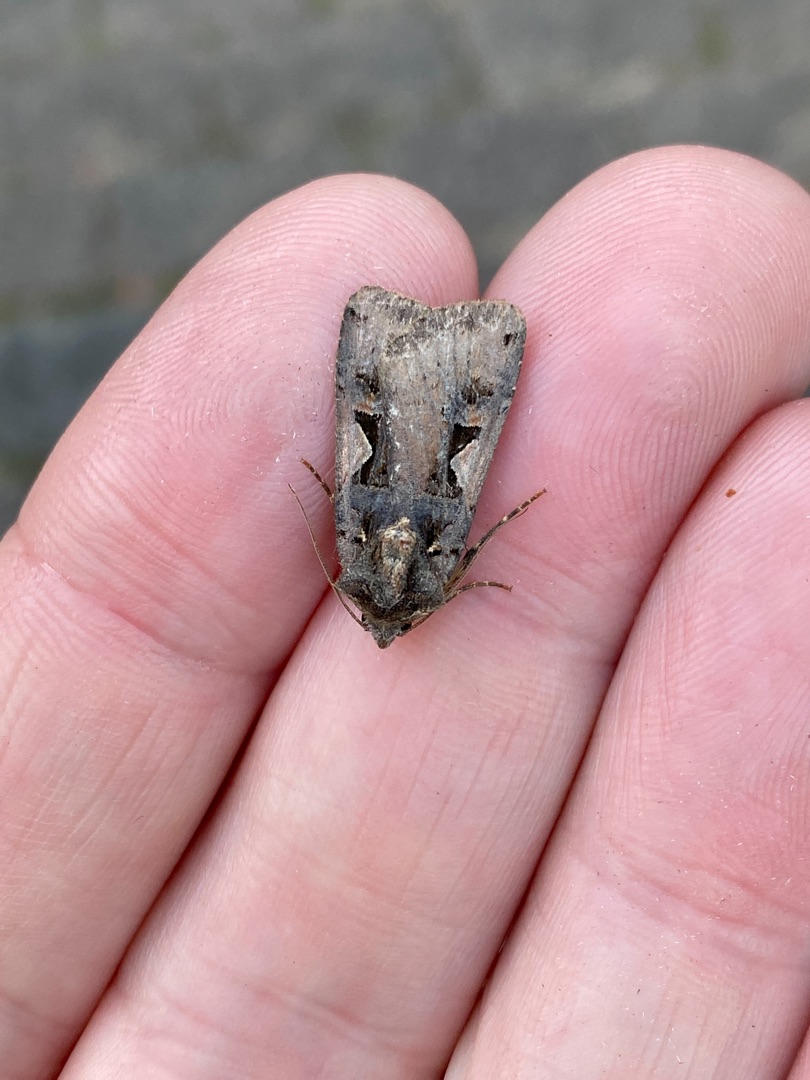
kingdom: Animalia
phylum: Arthropoda
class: Insecta
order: Lepidoptera
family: Noctuidae
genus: Xestia
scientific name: Xestia c-nigrum
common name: Det sorte c
